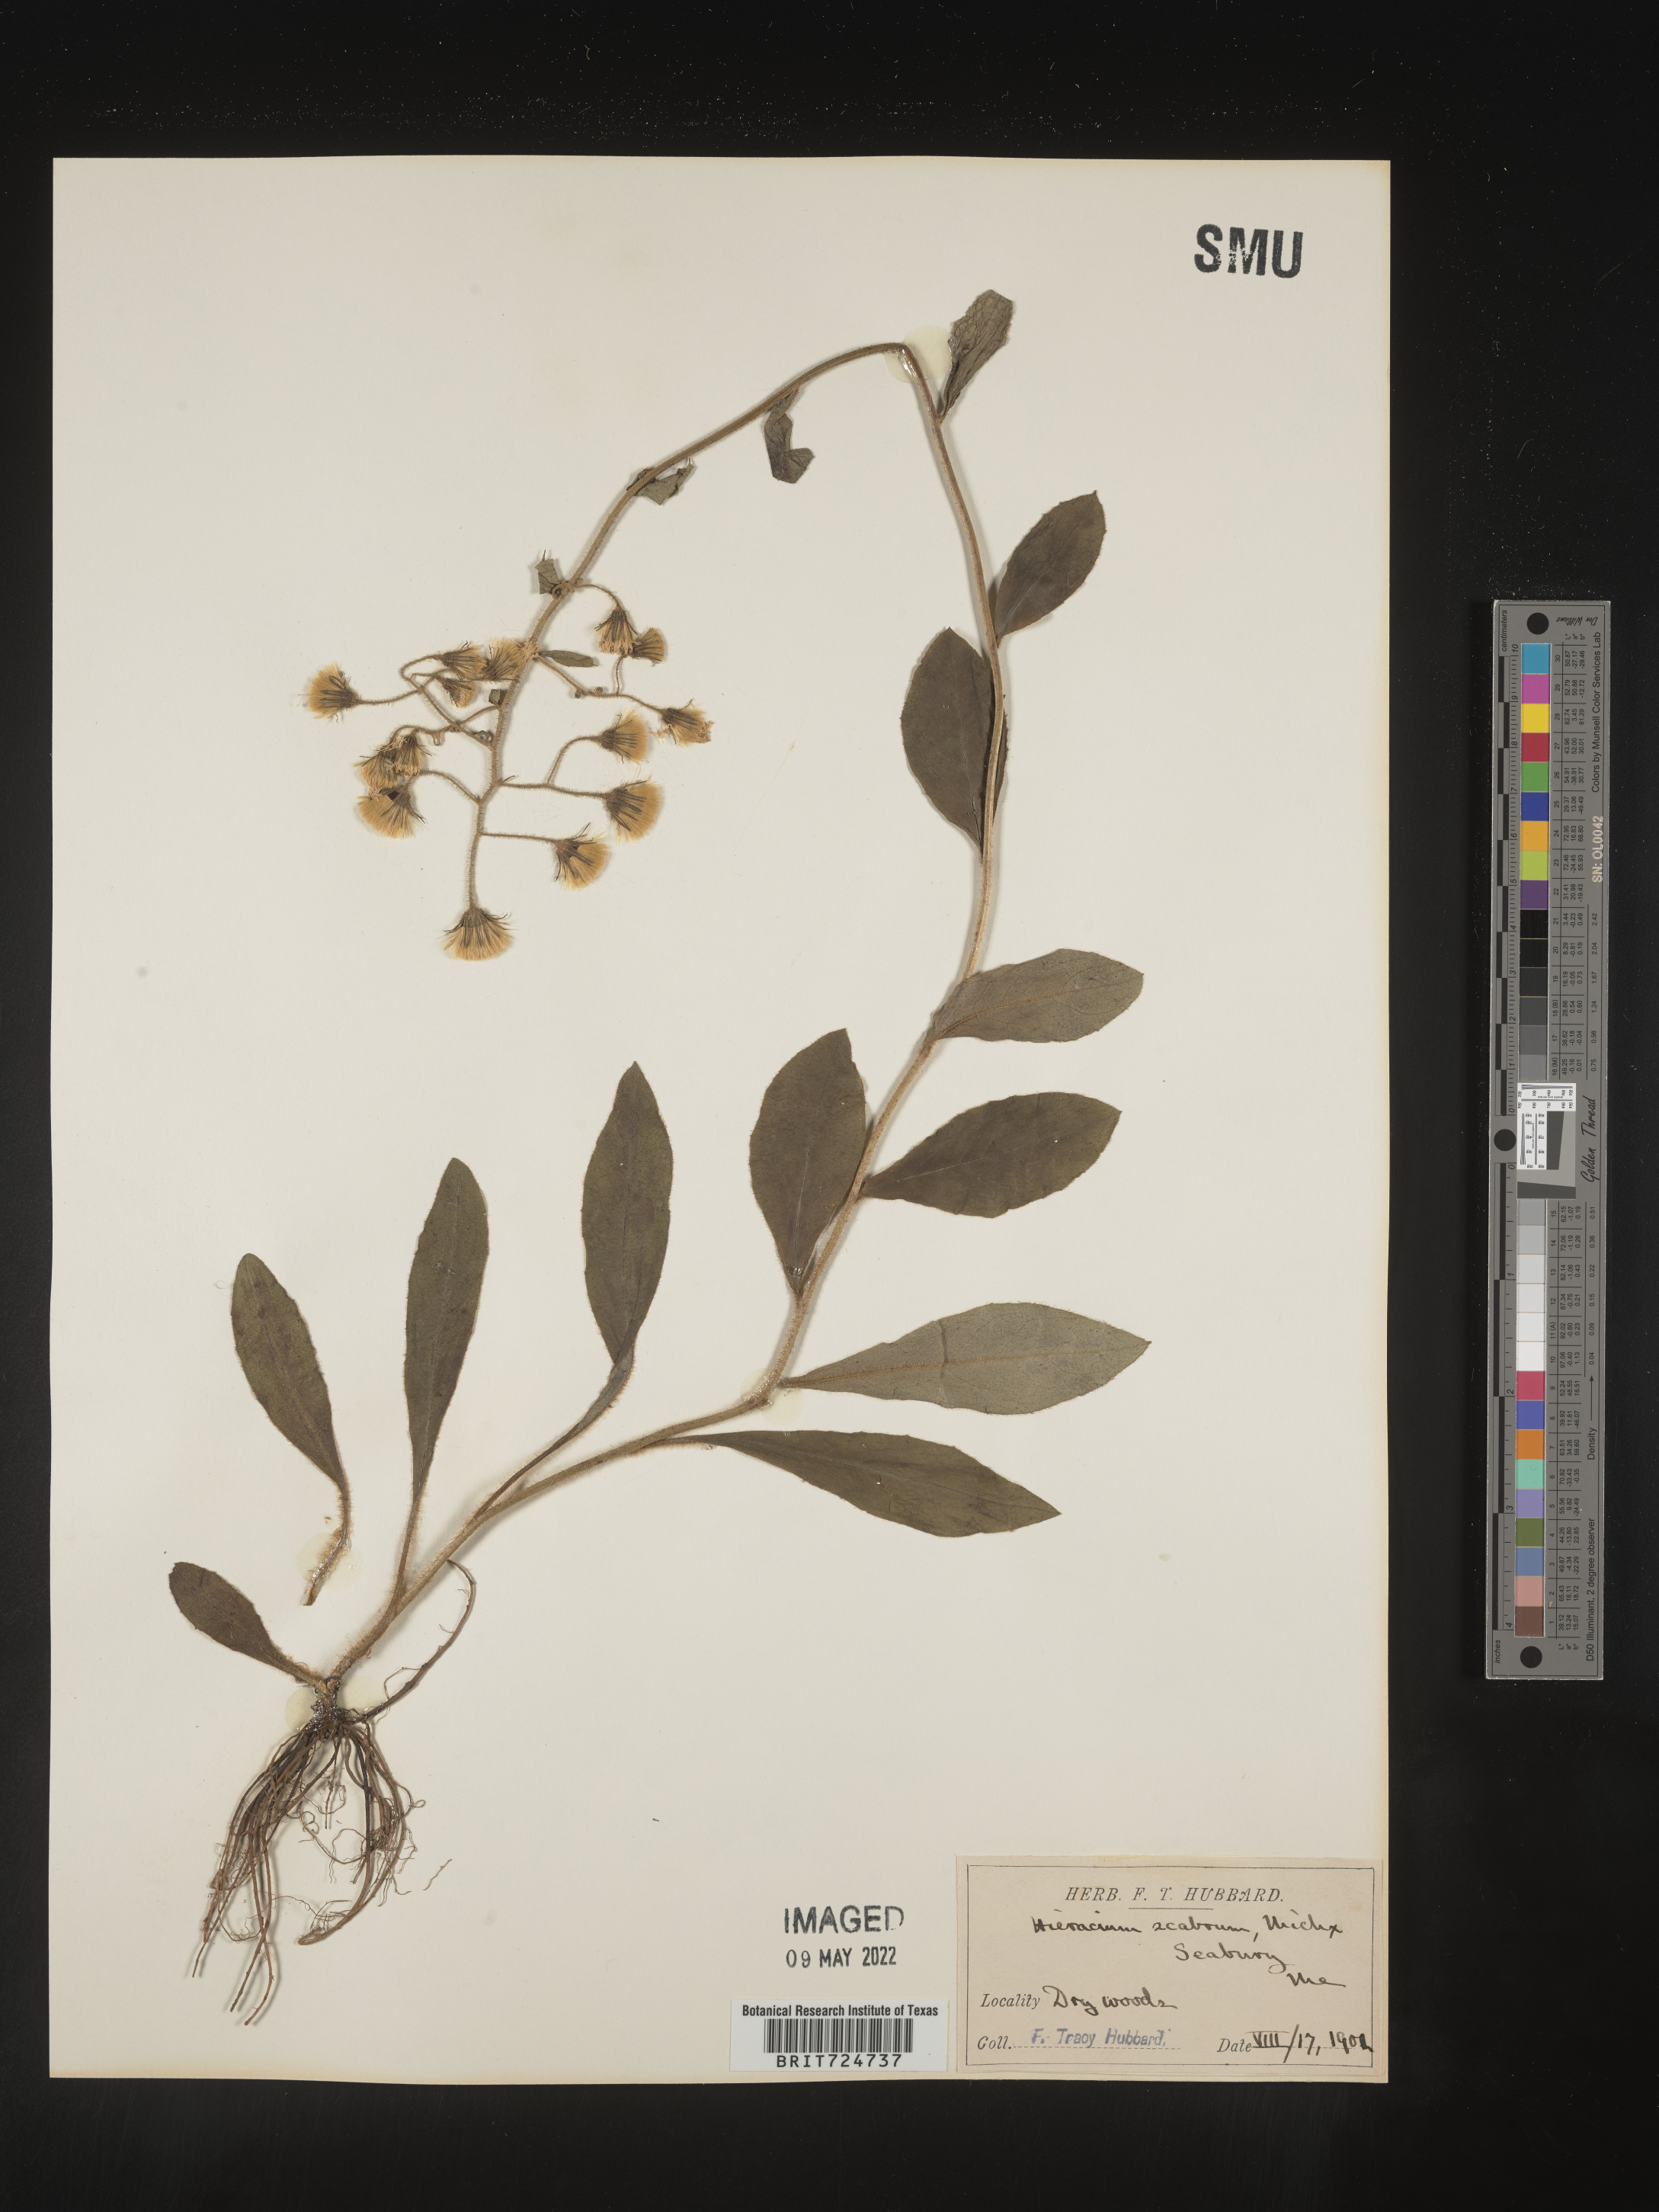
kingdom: Plantae
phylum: Tracheophyta
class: Magnoliopsida
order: Asterales
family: Asteraceae
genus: Hieracium
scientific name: Hieracium scabrum
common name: Rough hawkweed
